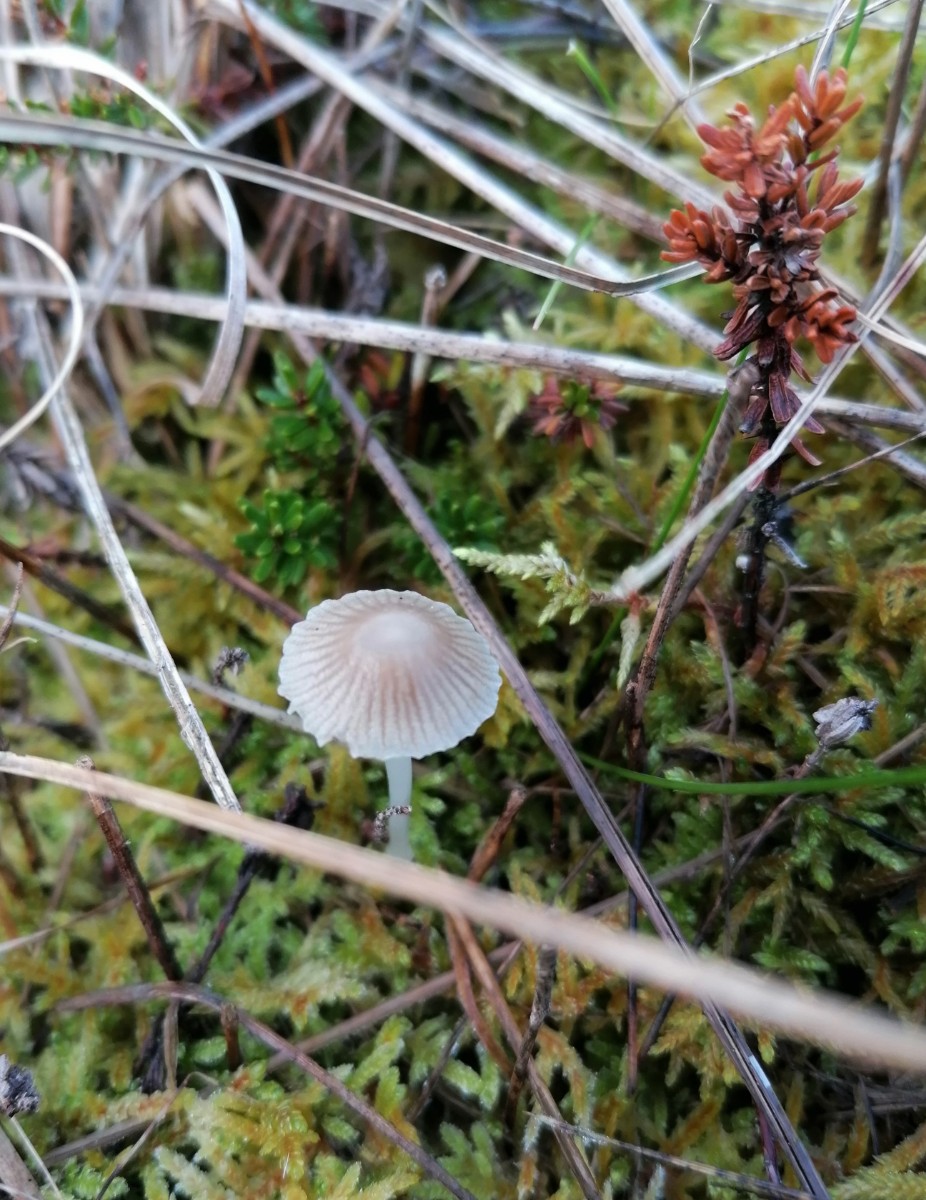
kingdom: Fungi
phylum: Basidiomycota
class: Agaricomycetes
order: Agaricales
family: Mycenaceae
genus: Mycena
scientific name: Mycena
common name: huesvamp
